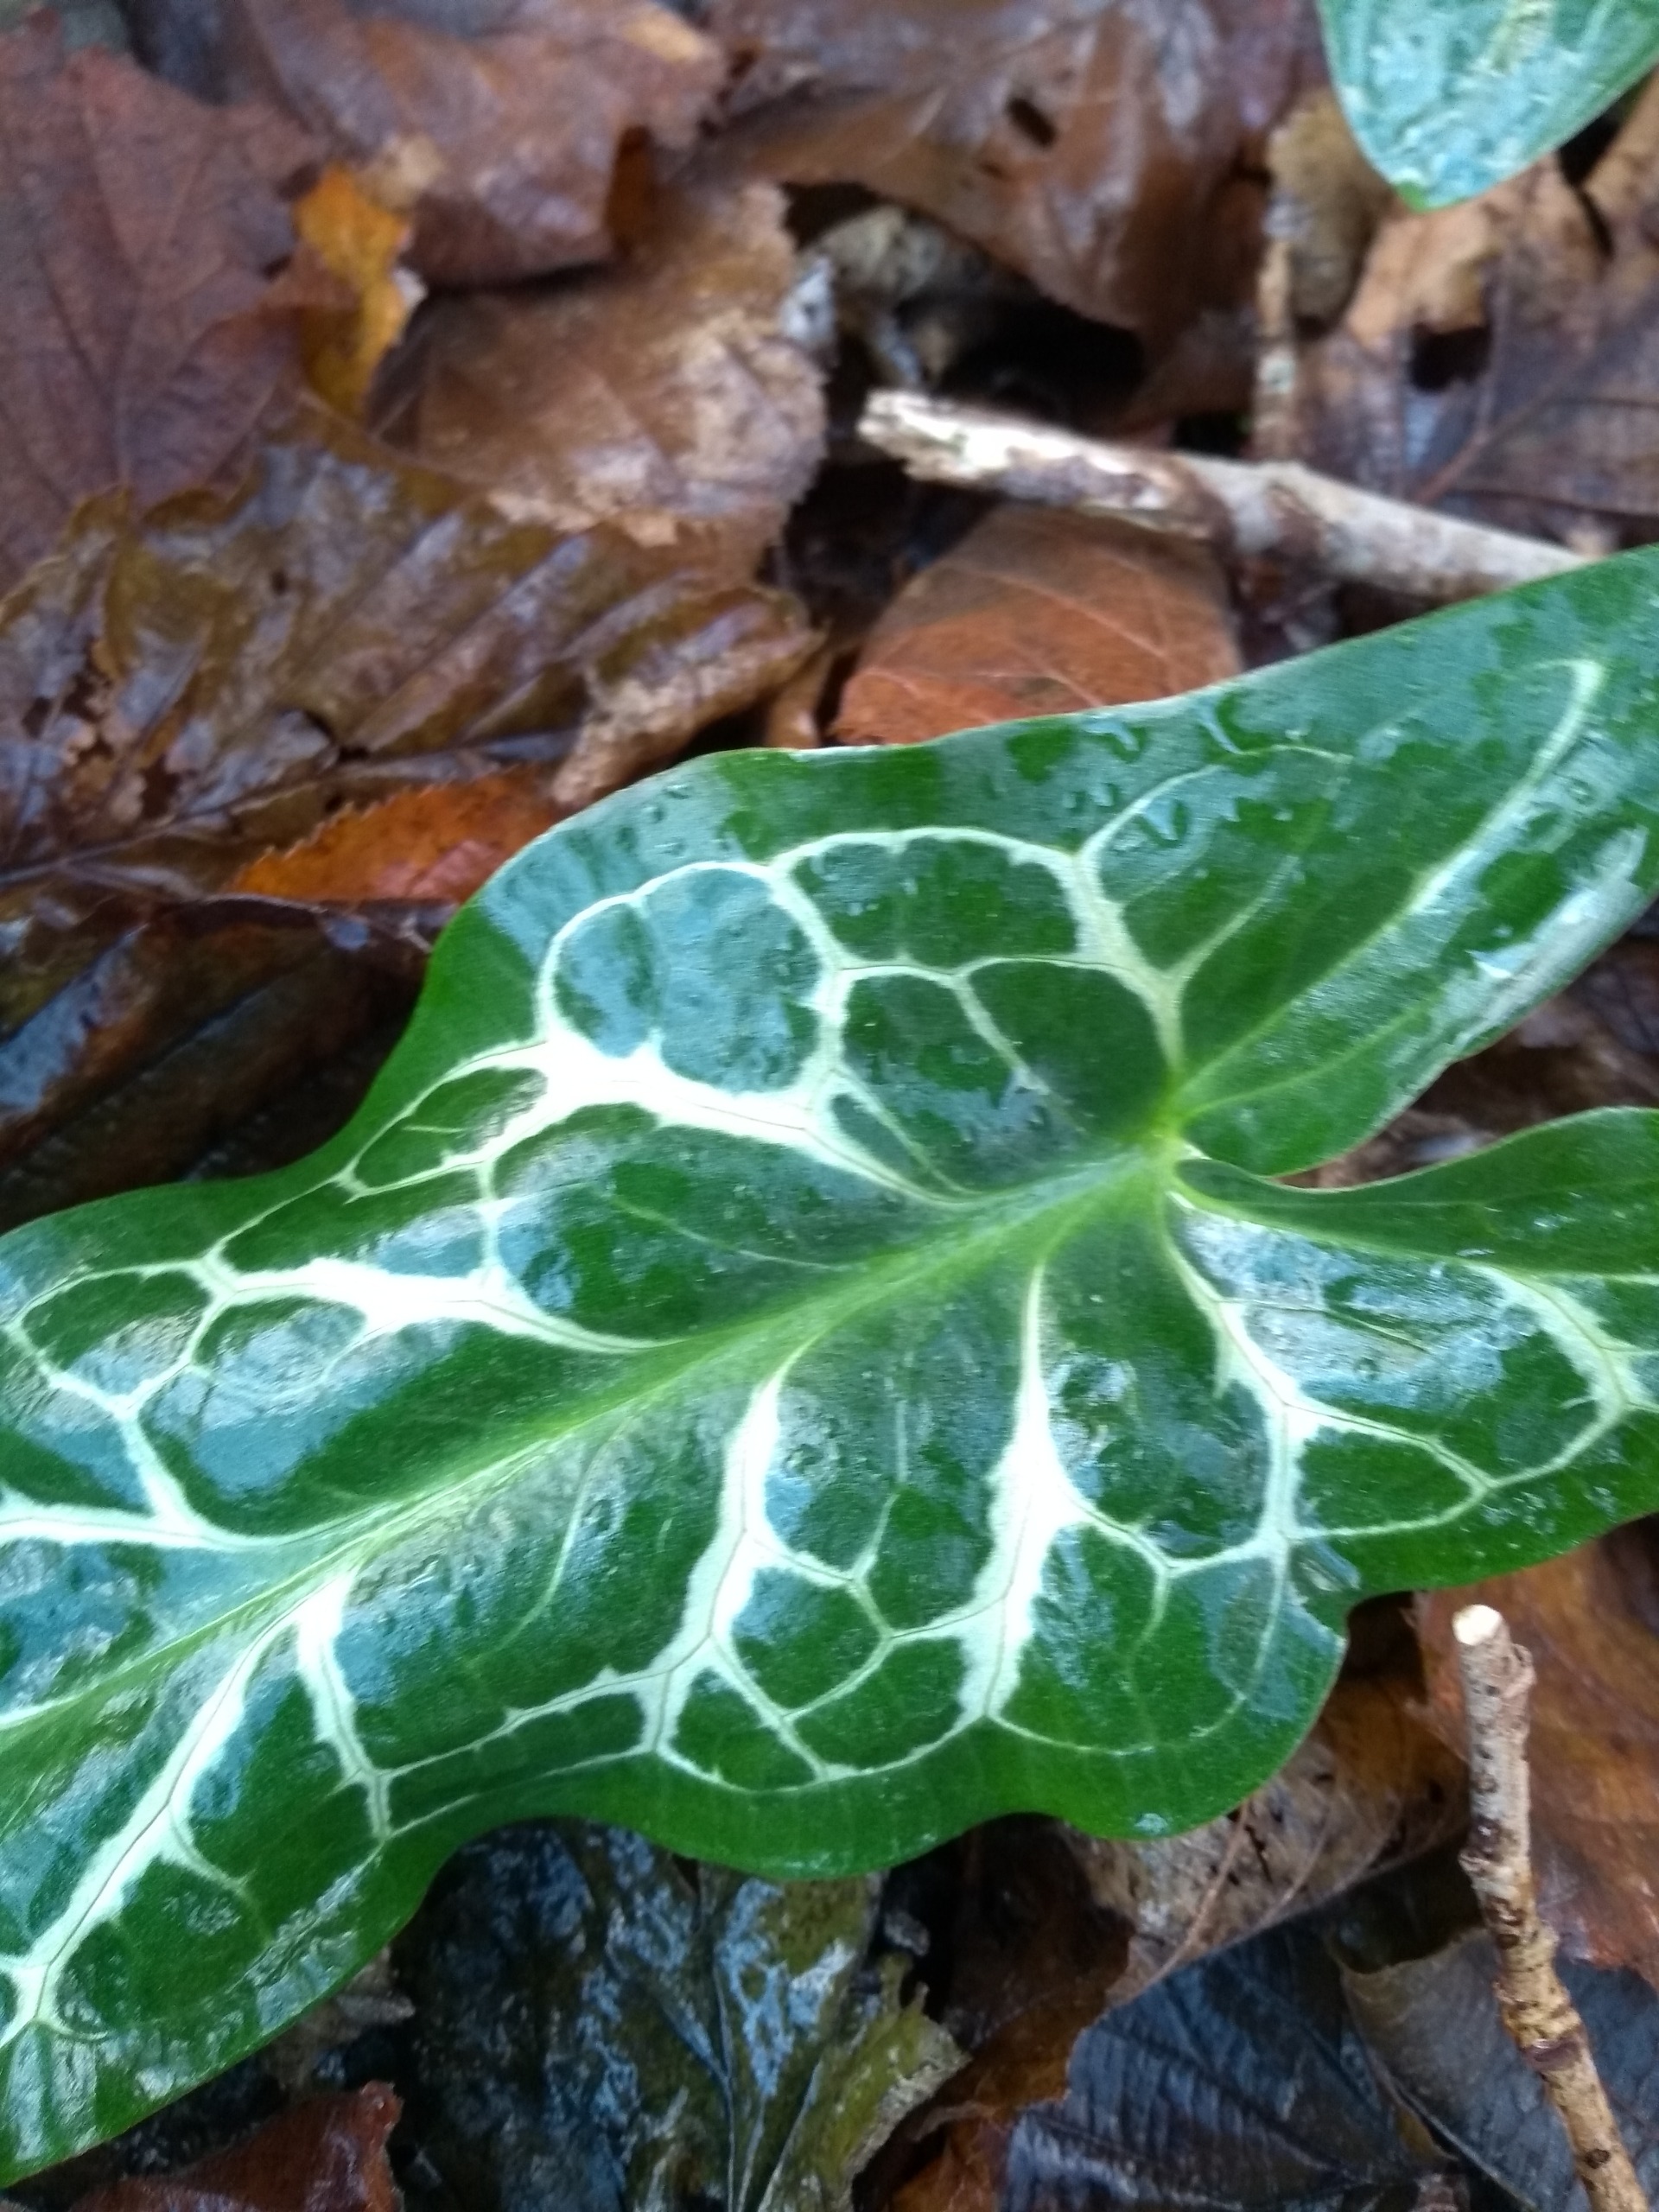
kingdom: Plantae
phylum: Tracheophyta
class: Liliopsida
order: Alismatales
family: Araceae
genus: Arum
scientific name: Arum italicum
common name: Italiensk arum
